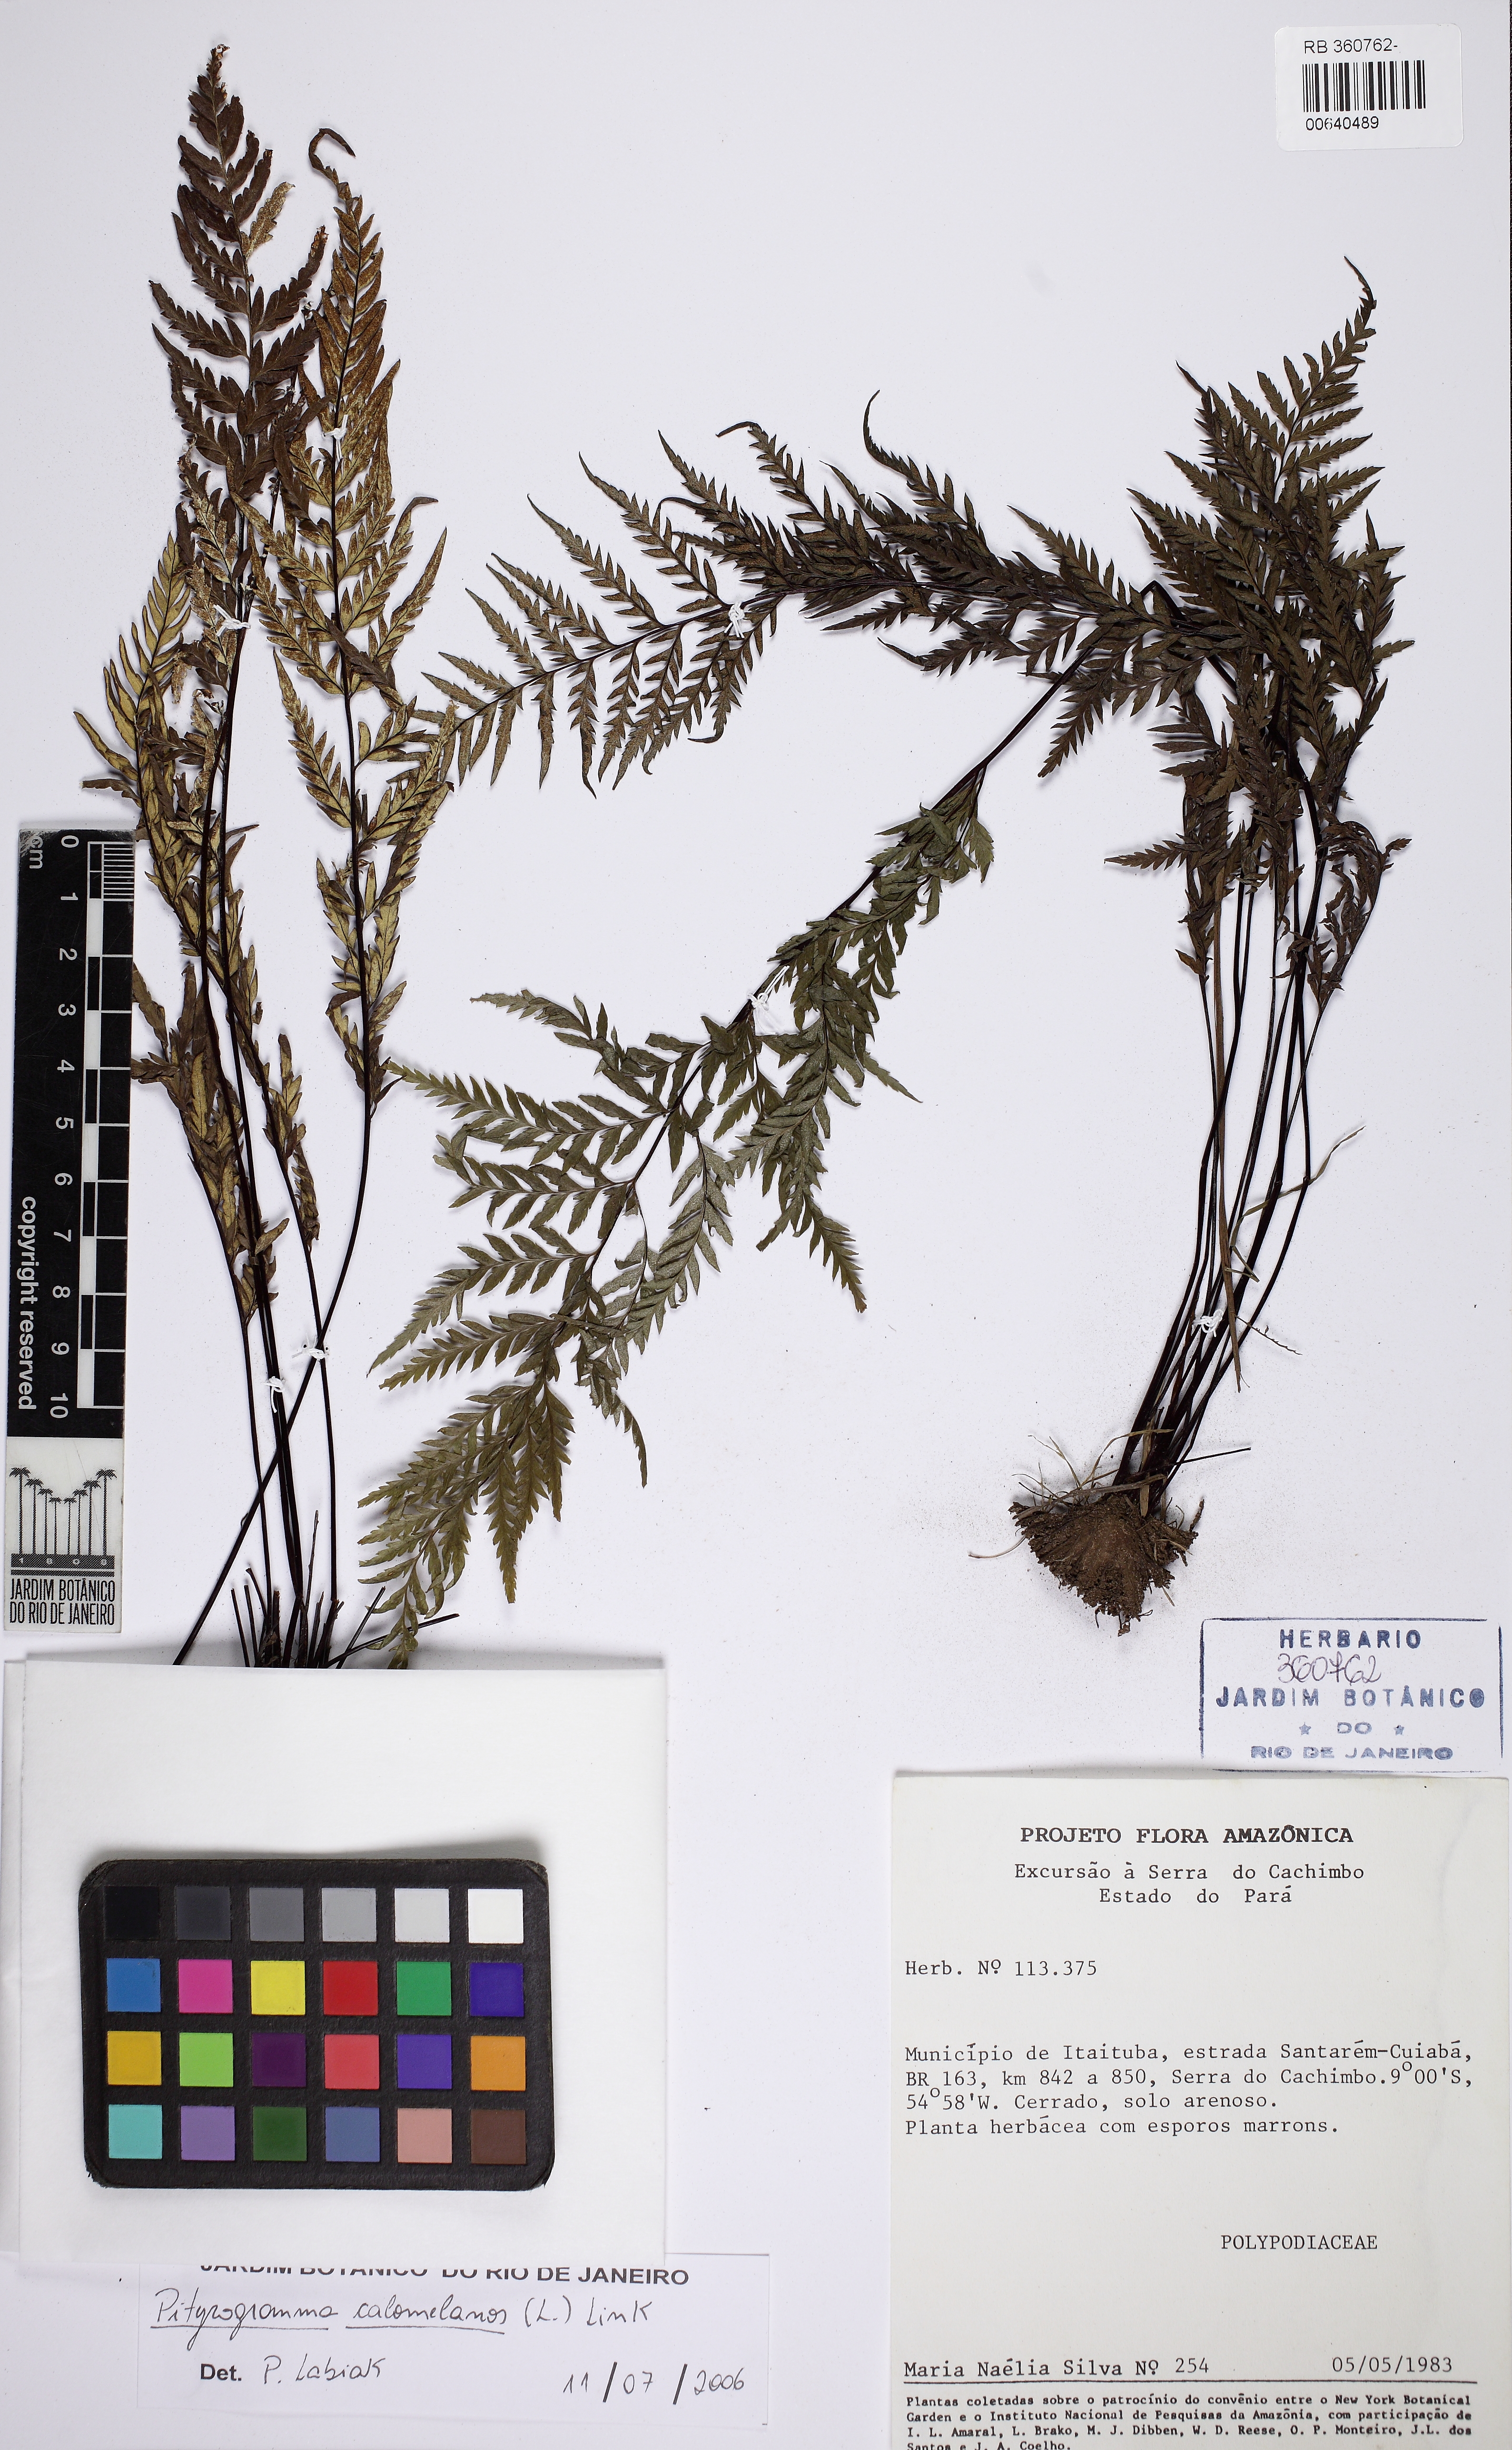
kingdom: Plantae
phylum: Tracheophyta
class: Polypodiopsida
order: Polypodiales
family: Pteridaceae
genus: Pityrogramma
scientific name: Pityrogramma calomelanos
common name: Dixie silverback fern
